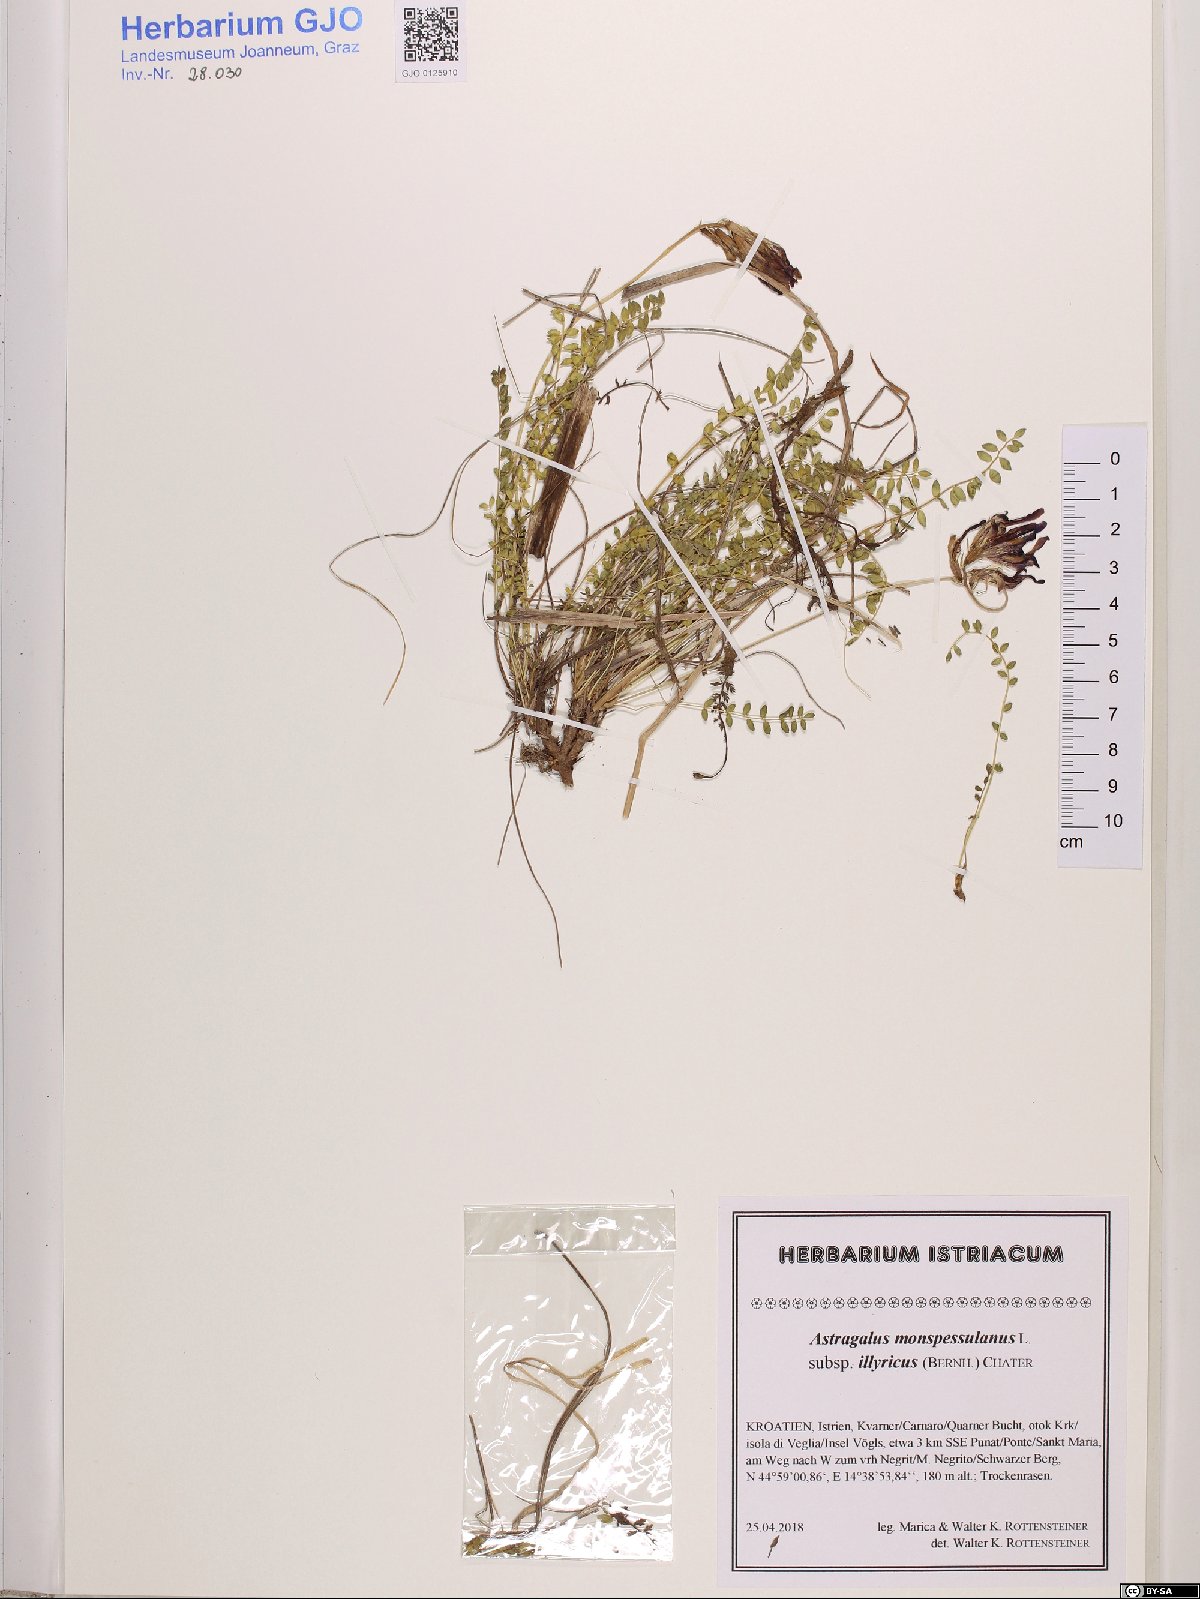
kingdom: Plantae
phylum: Tracheophyta
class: Magnoliopsida
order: Fabales
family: Fabaceae
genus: Astragalus
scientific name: Astragalus monspessulanus
